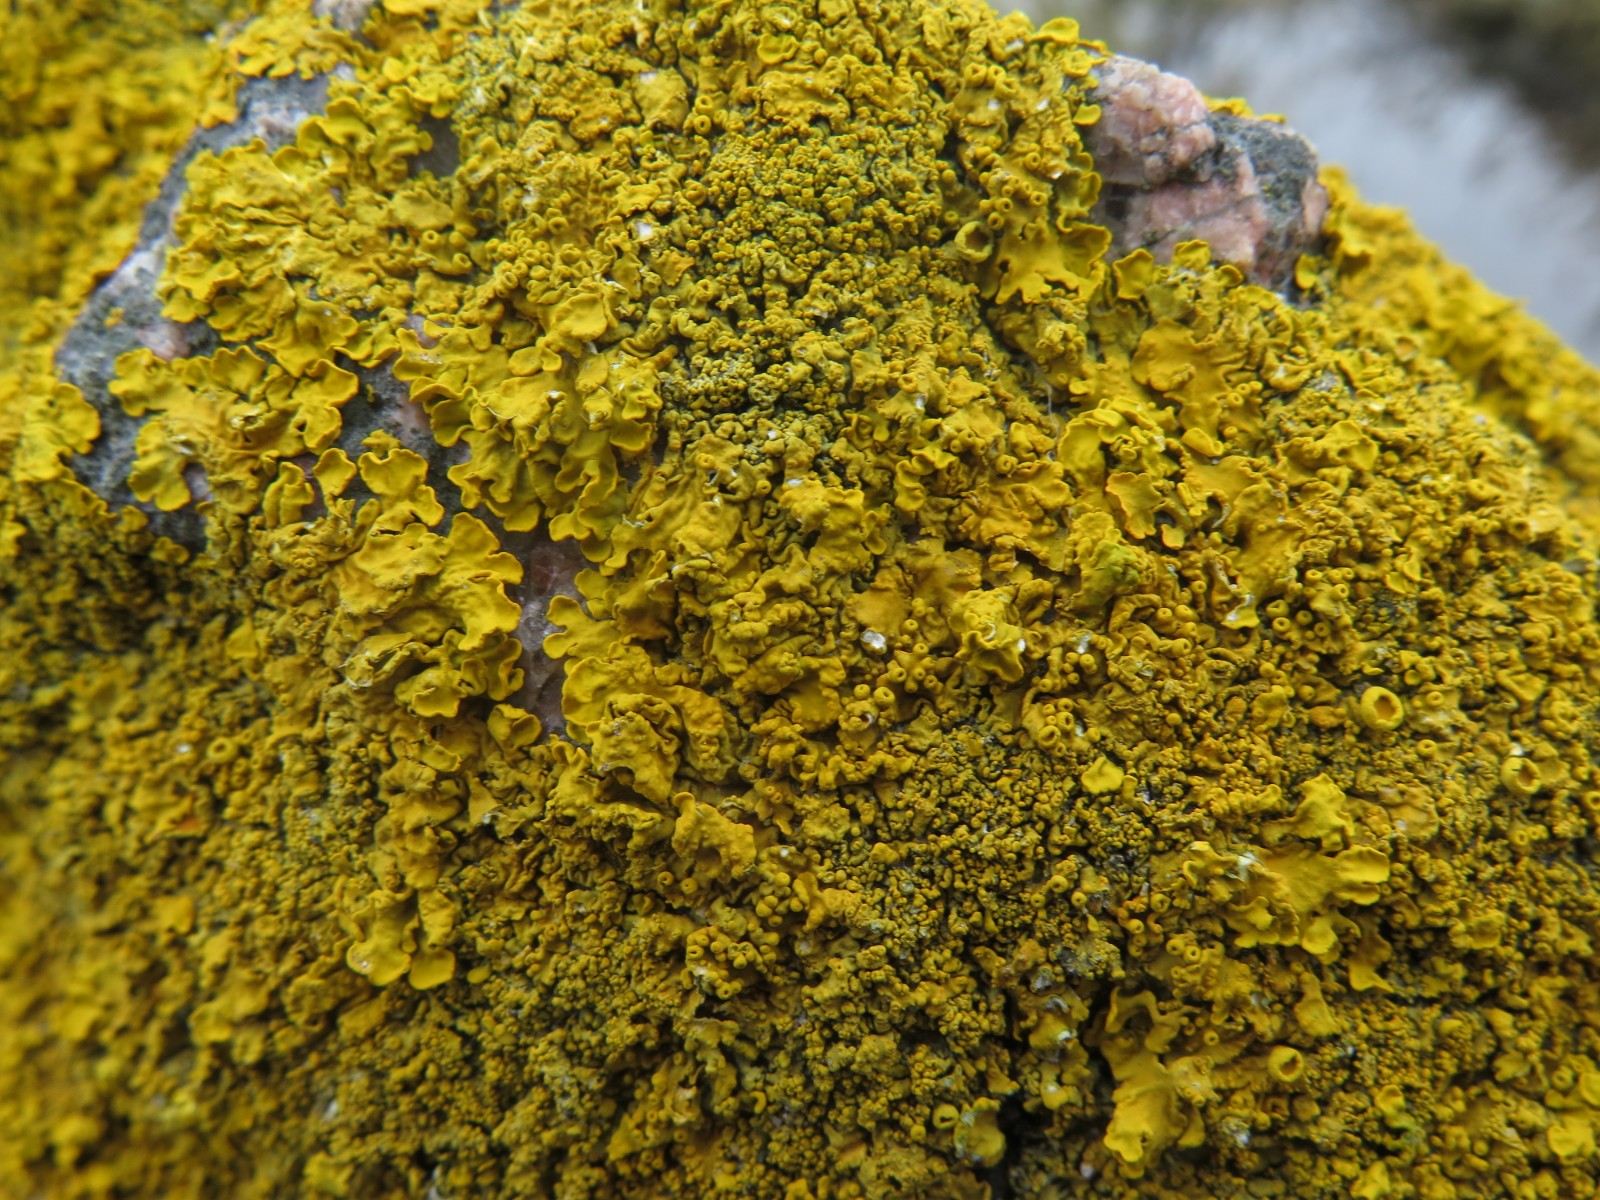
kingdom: Fungi
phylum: Ascomycota
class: Lecanoromycetes
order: Teloschistales
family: Teloschistaceae
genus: Xanthoria
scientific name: Xanthoria calcicola
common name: vortet væggelav
